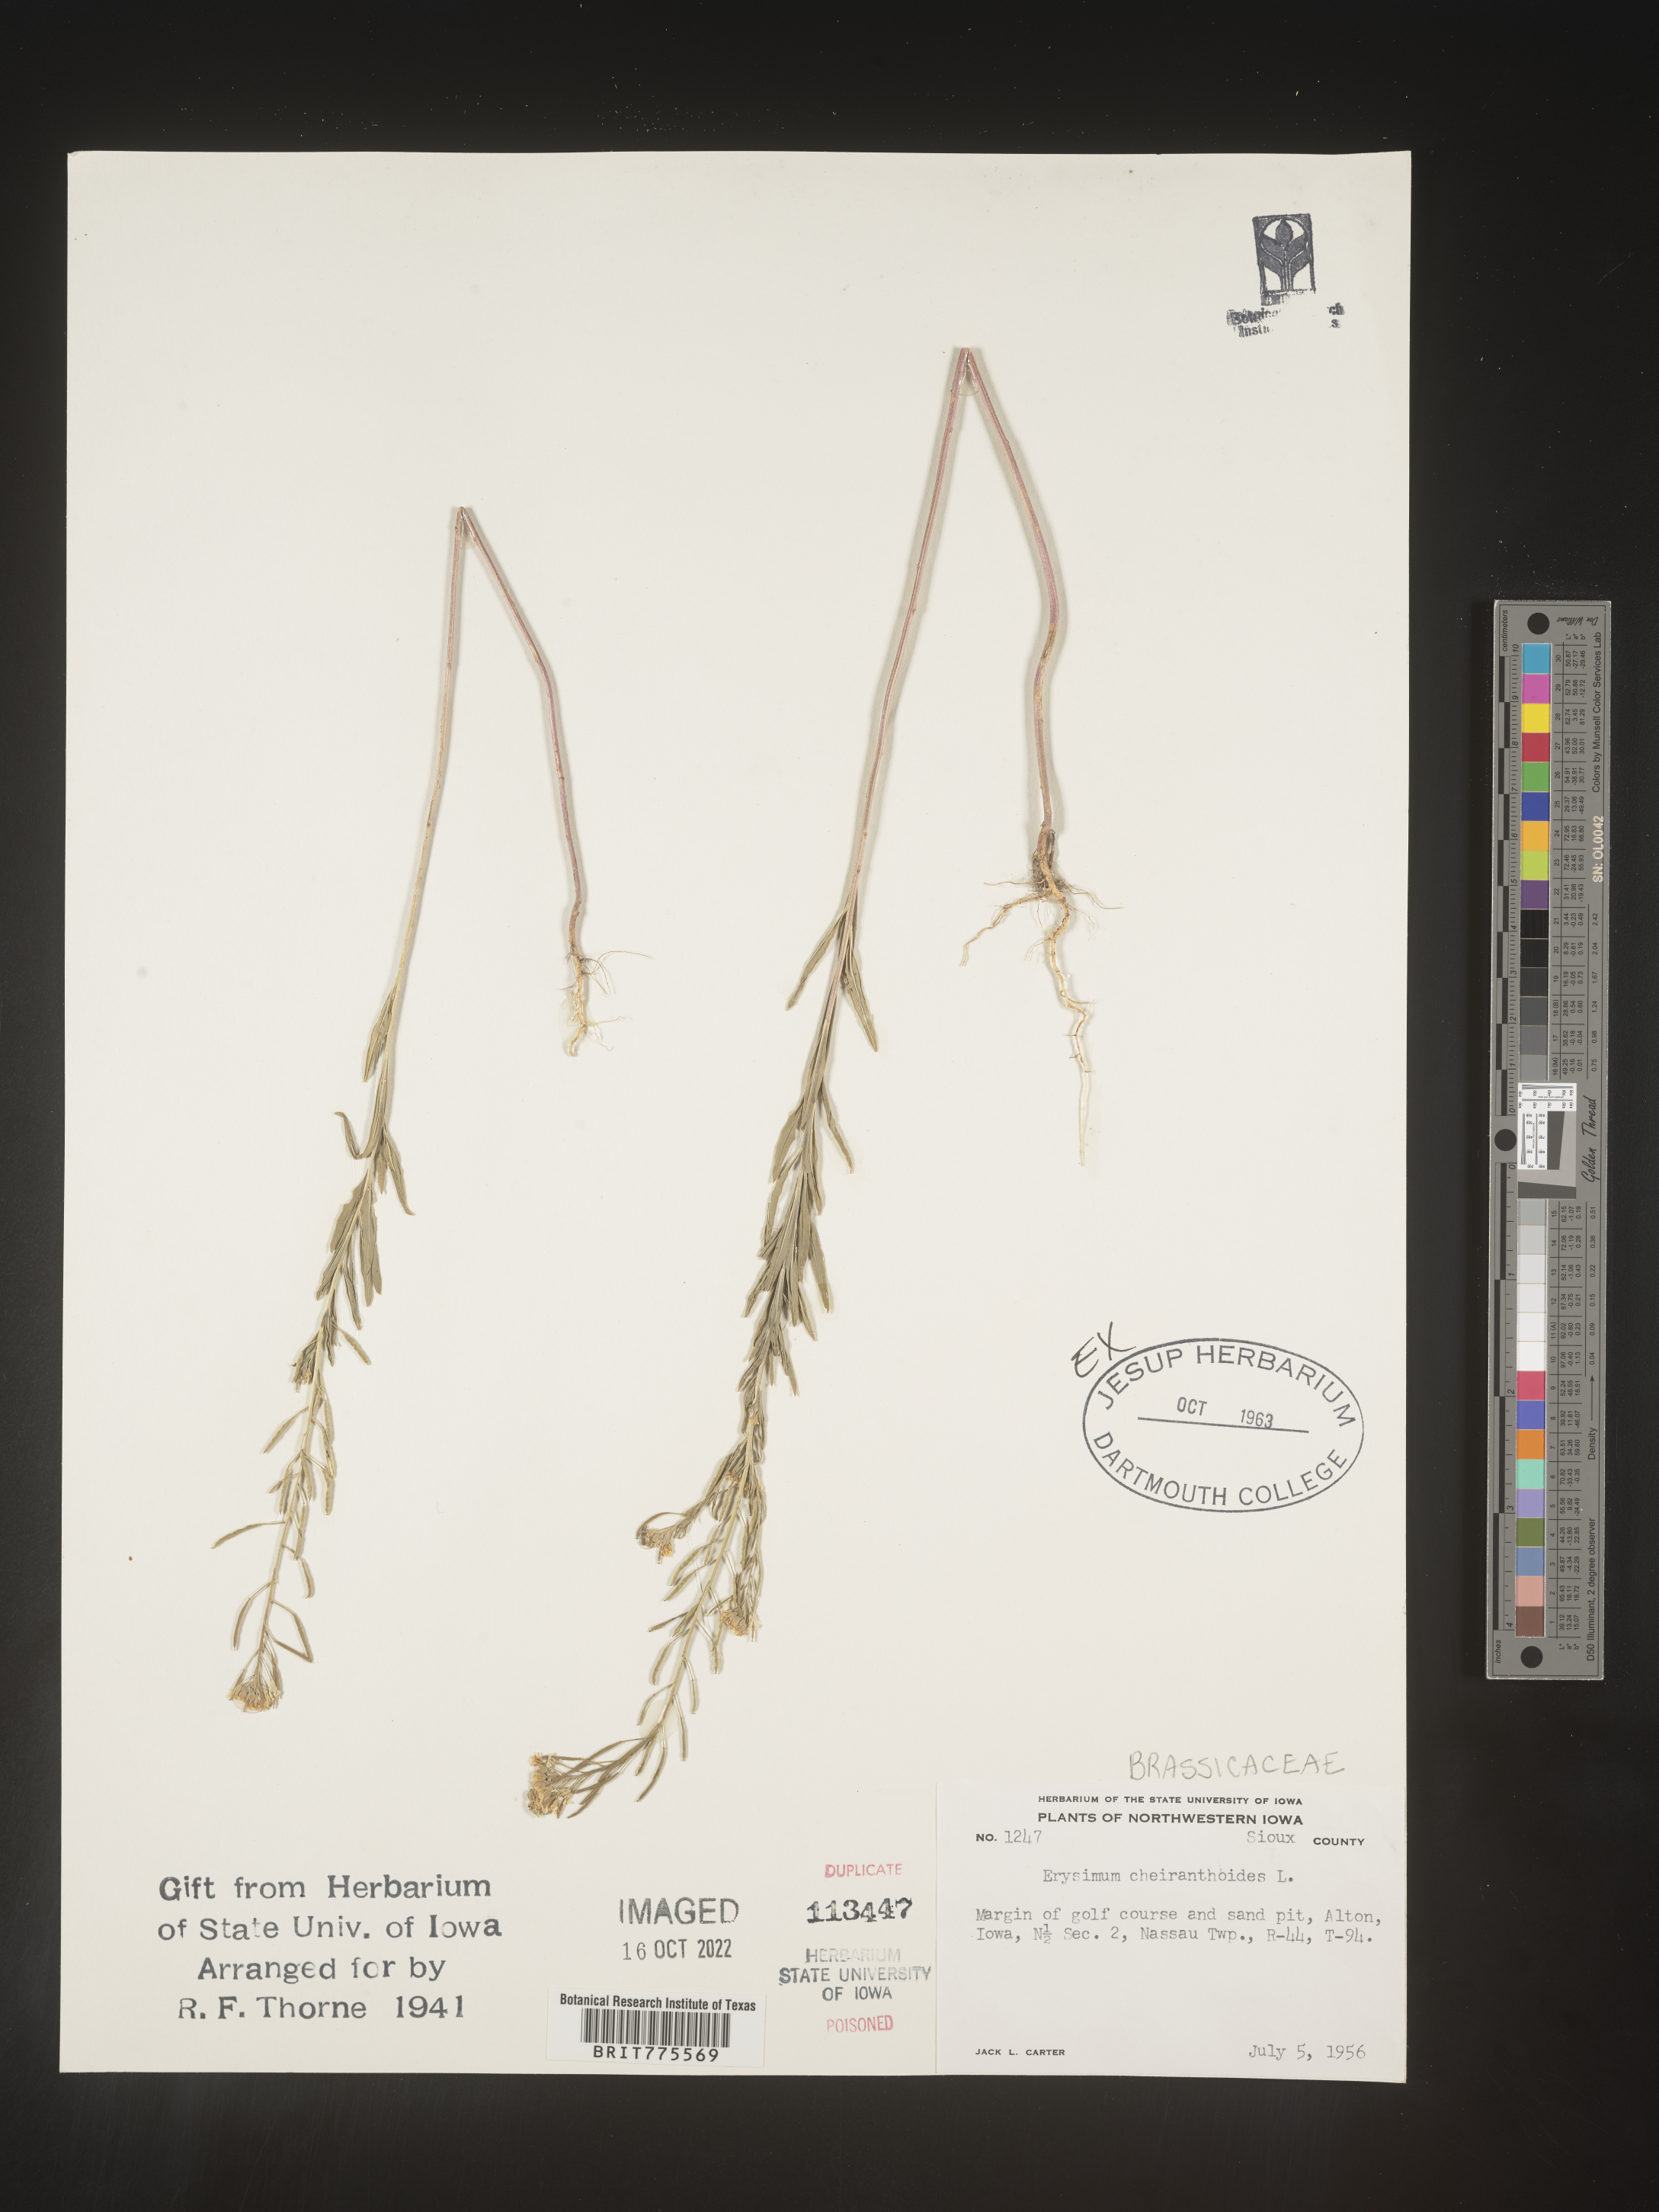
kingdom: Plantae
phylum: Tracheophyta
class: Magnoliopsida
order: Brassicales
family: Brassicaceae
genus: Erysimum
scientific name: Erysimum cheiranthoides
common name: Treacle mustard
